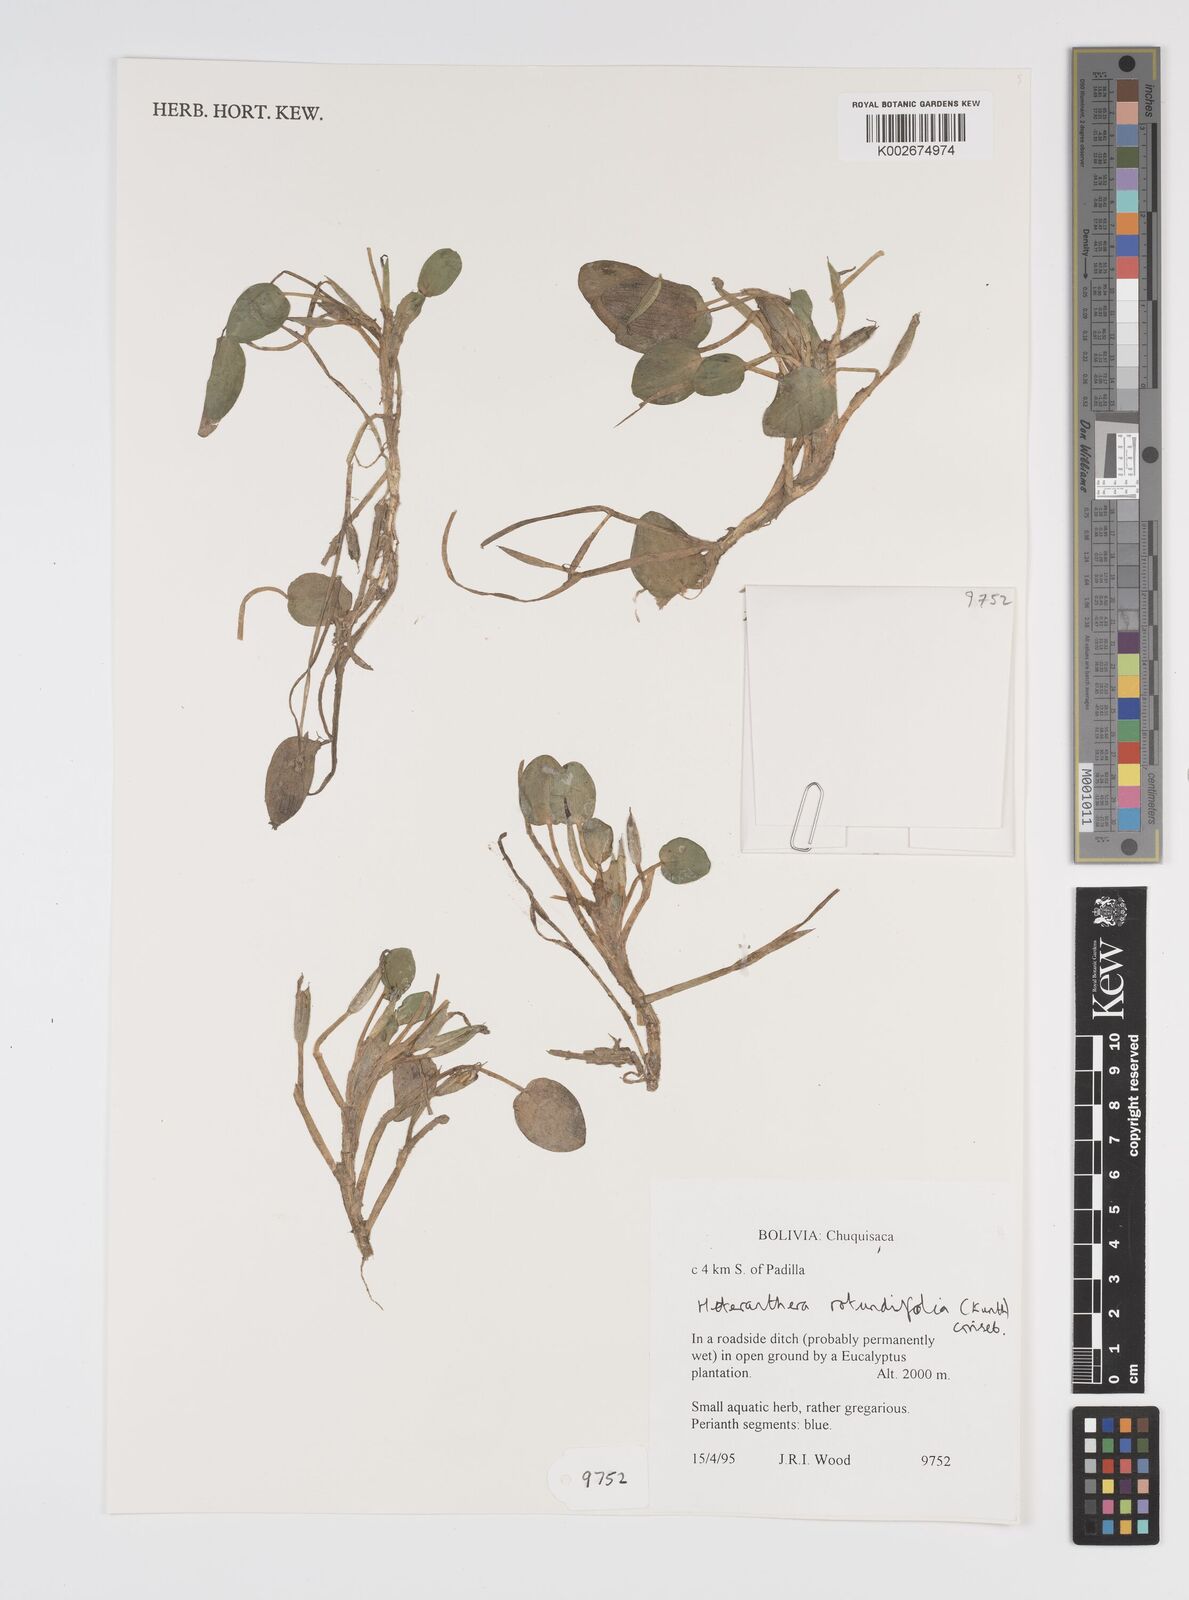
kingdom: Plantae
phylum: Tracheophyta
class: Liliopsida
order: Commelinales
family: Pontederiaceae
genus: Heteranthera
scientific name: Heteranthera rotundifolia
